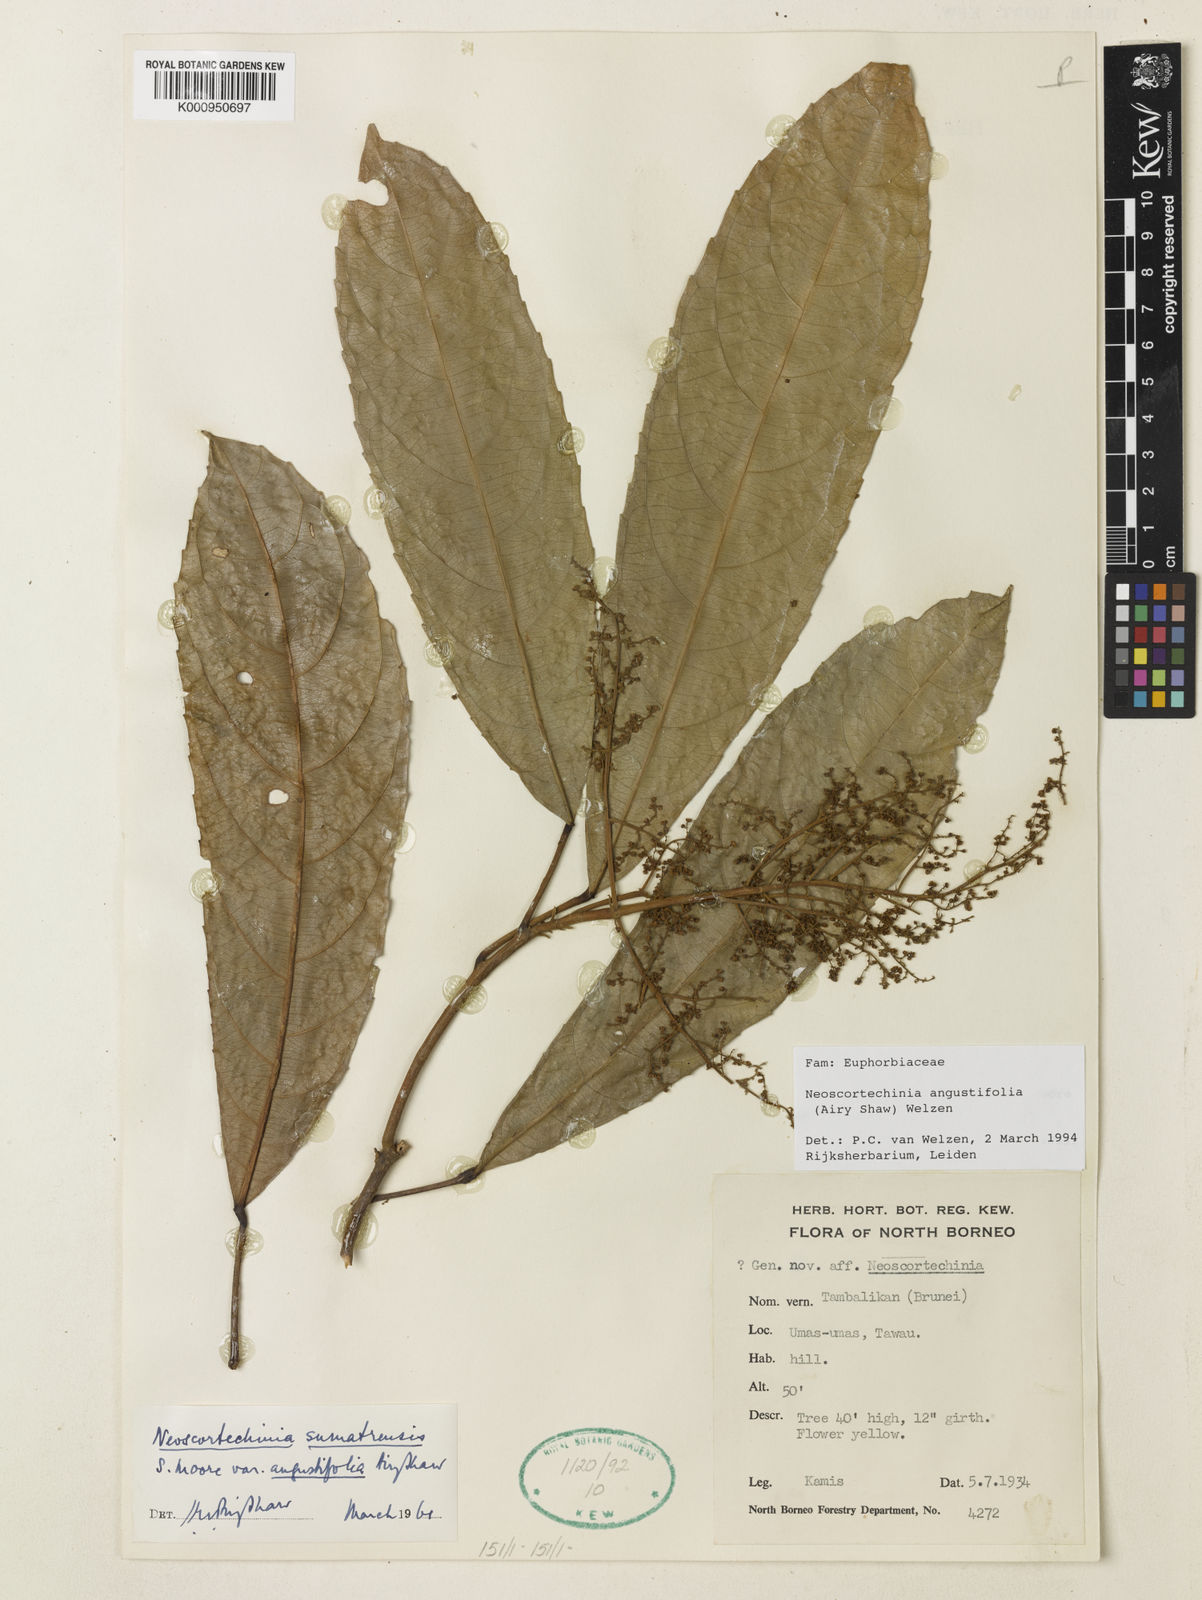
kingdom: Plantae
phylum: Tracheophyta
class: Magnoliopsida
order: Malpighiales
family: Euphorbiaceae
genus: Neoscortechinia
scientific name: Neoscortechinia angustifolia
